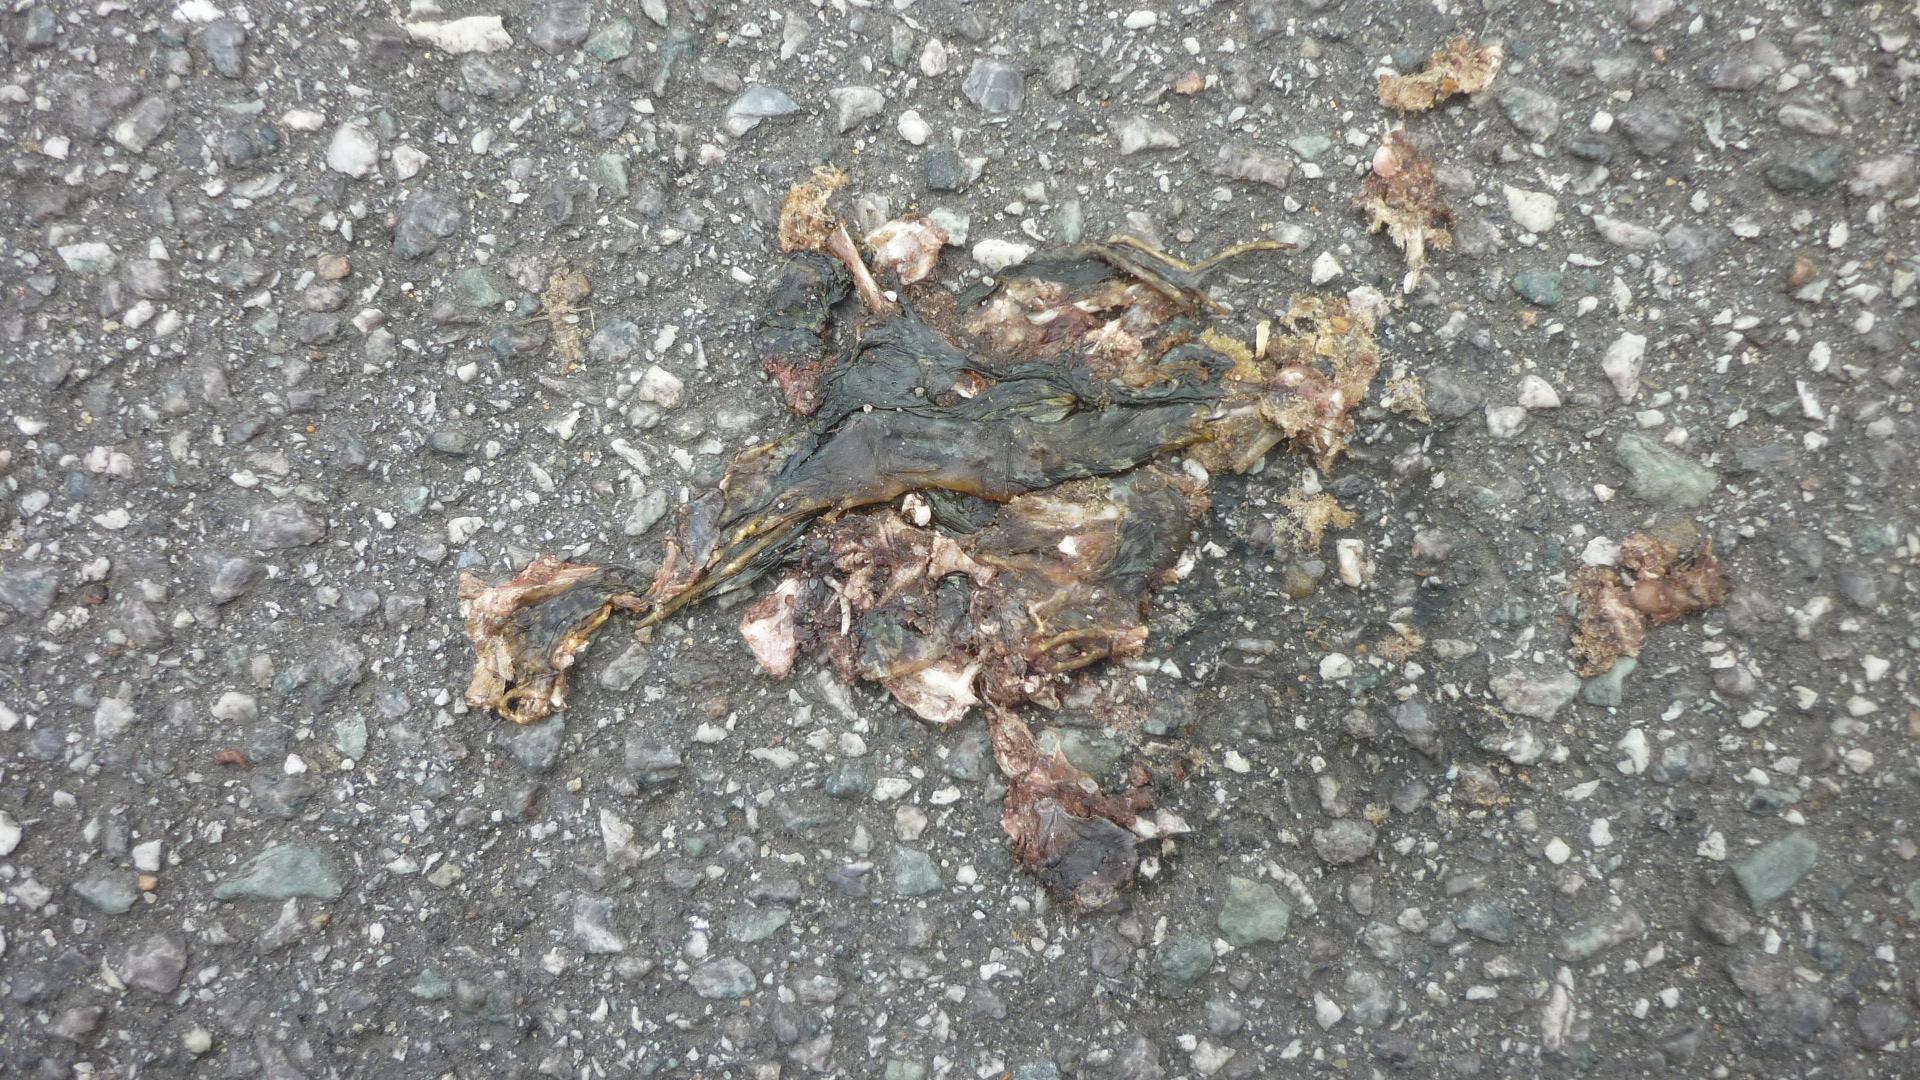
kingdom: Animalia
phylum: Chordata
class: Amphibia
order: Anura
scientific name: Anura
